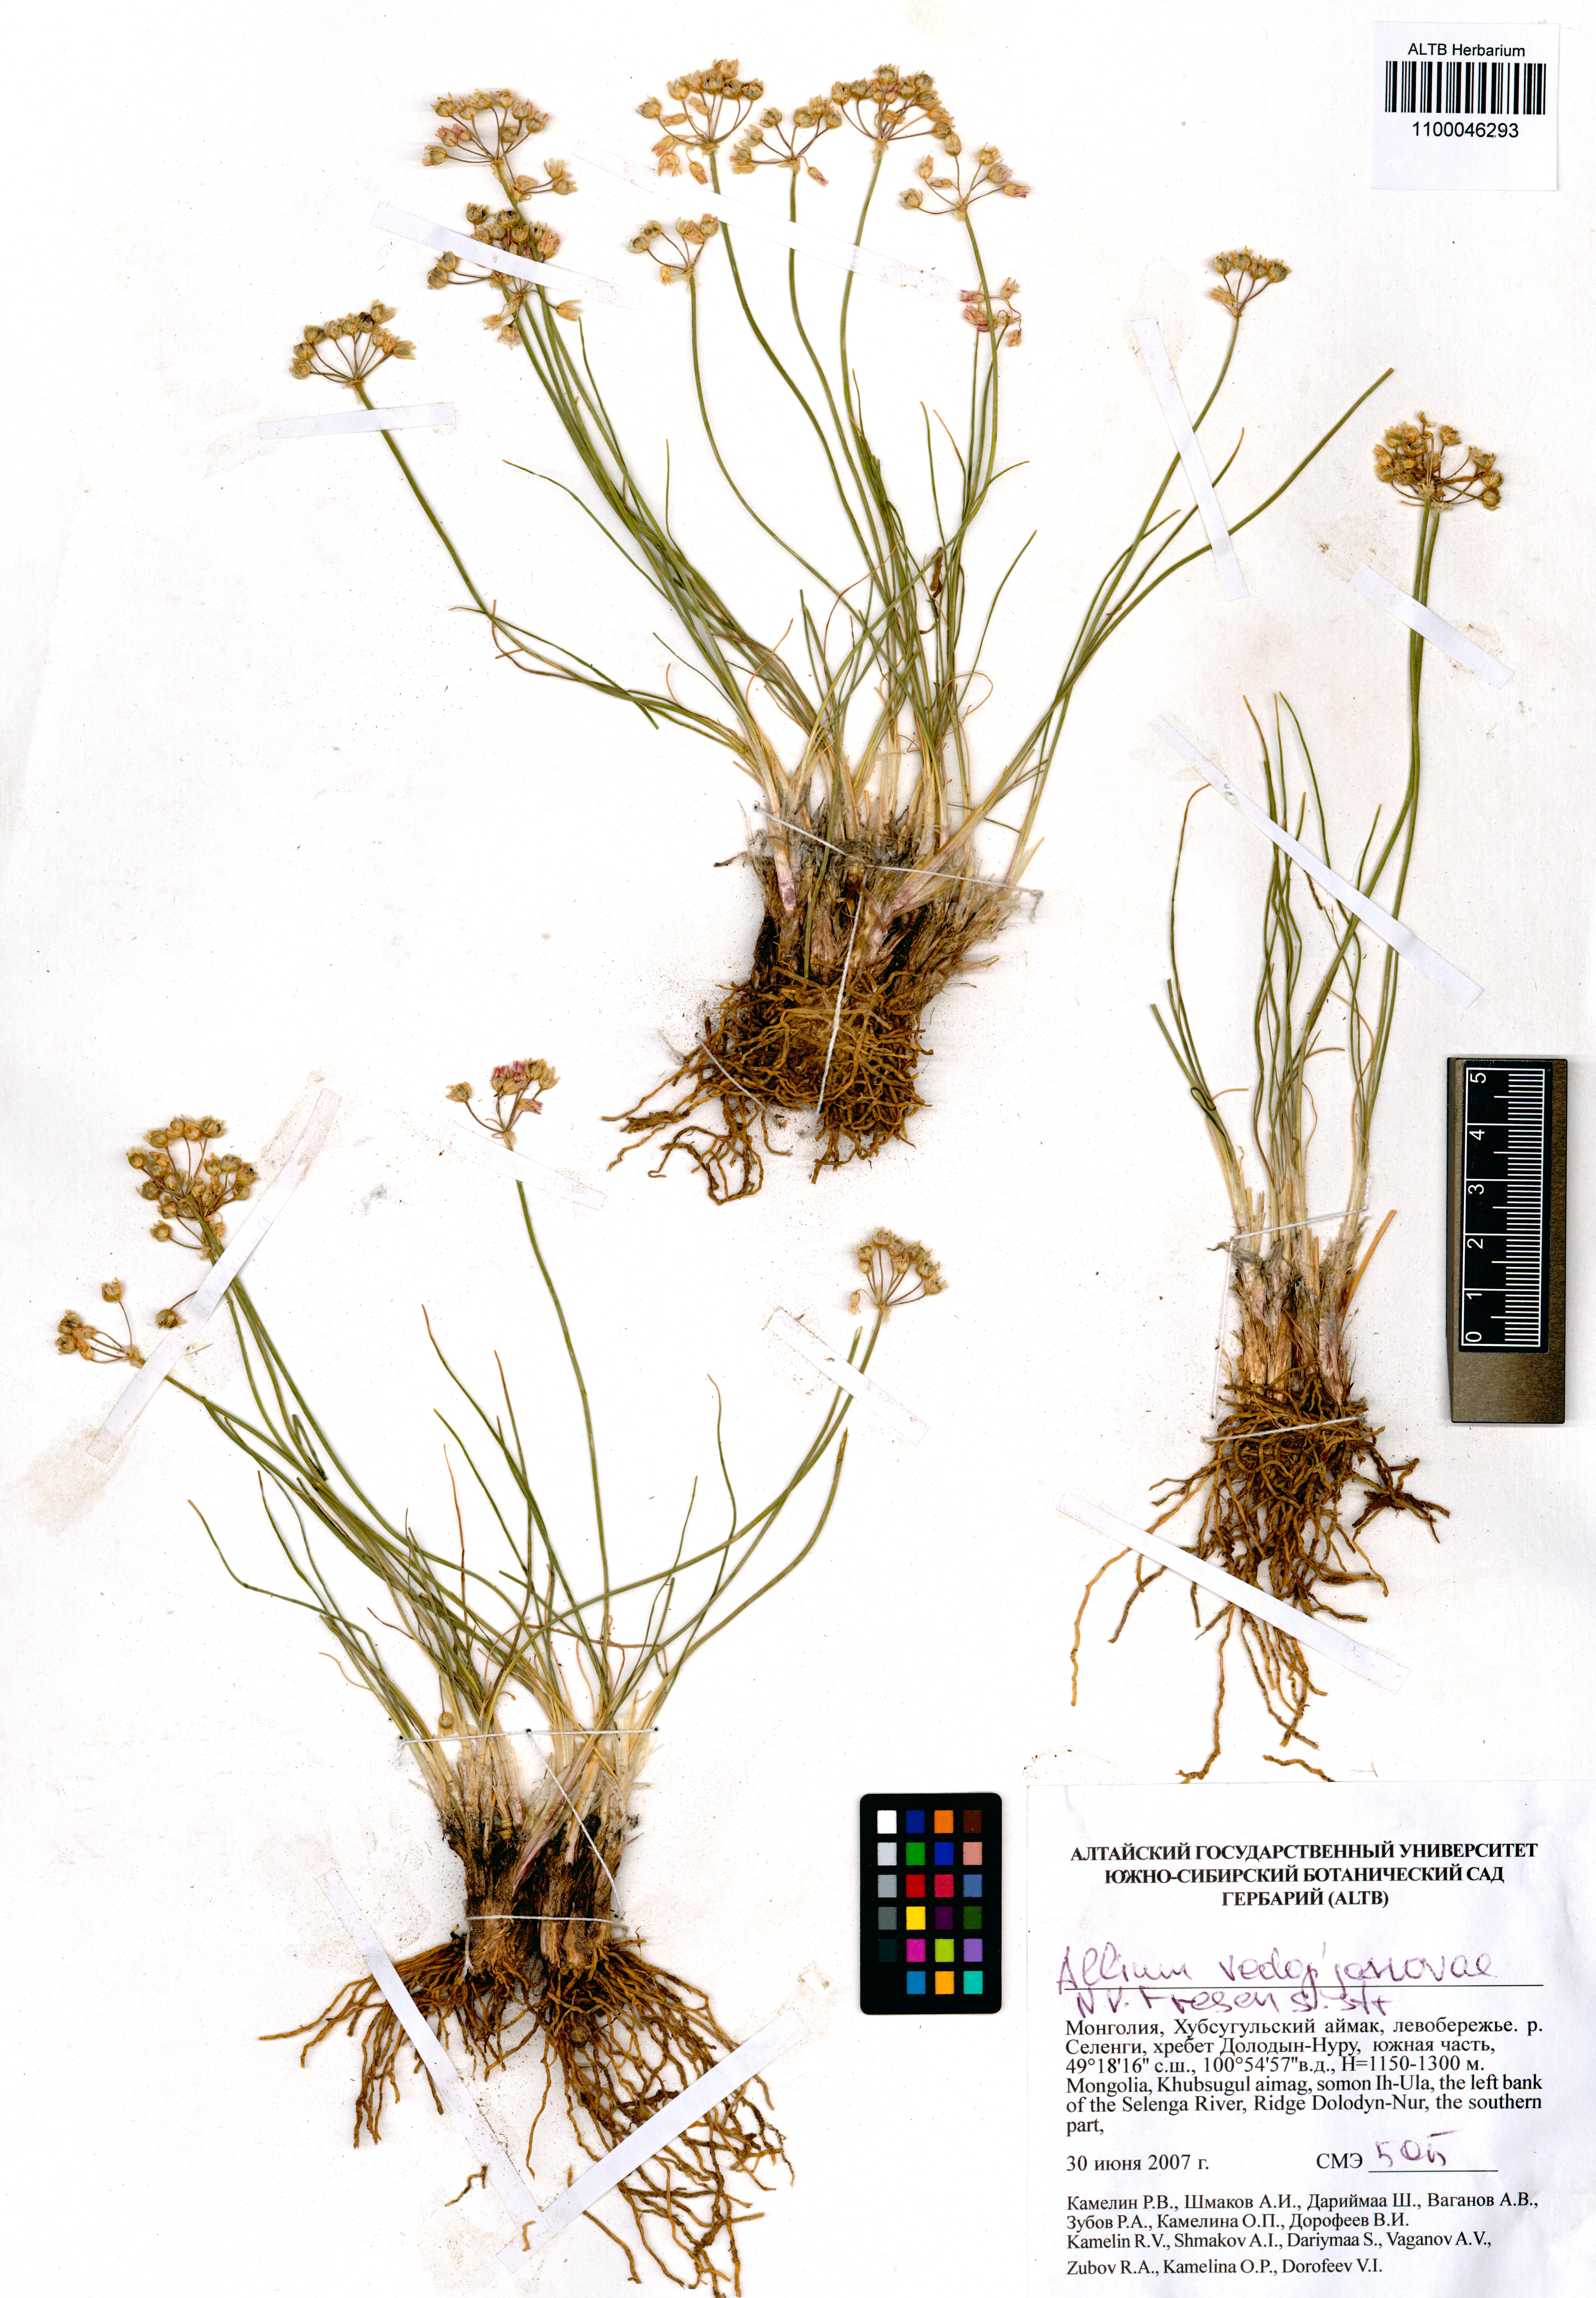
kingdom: Plantae
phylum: Tracheophyta
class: Liliopsida
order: Asparagales
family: Amaryllidaceae
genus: Allium
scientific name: Allium vodopjanovae
